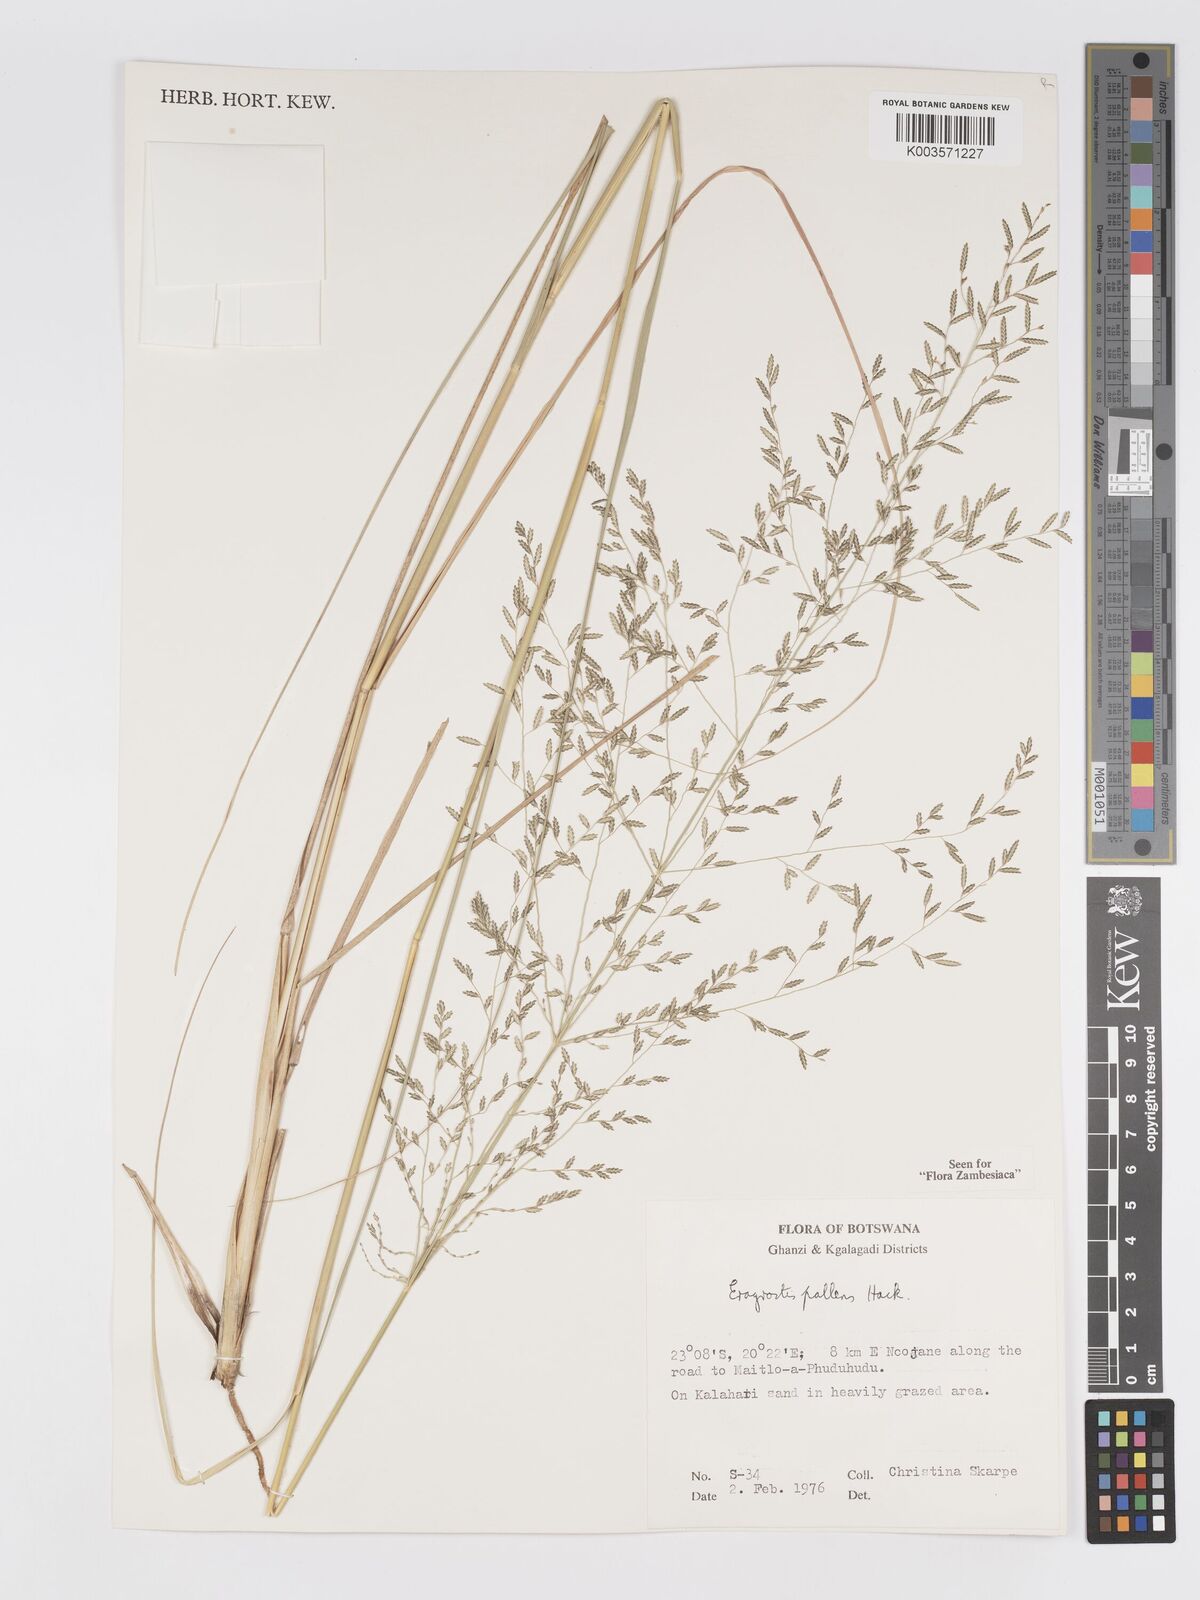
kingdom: Plantae
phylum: Tracheophyta
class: Liliopsida
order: Poales
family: Poaceae
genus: Eragrostis
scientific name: Eragrostis pallens
